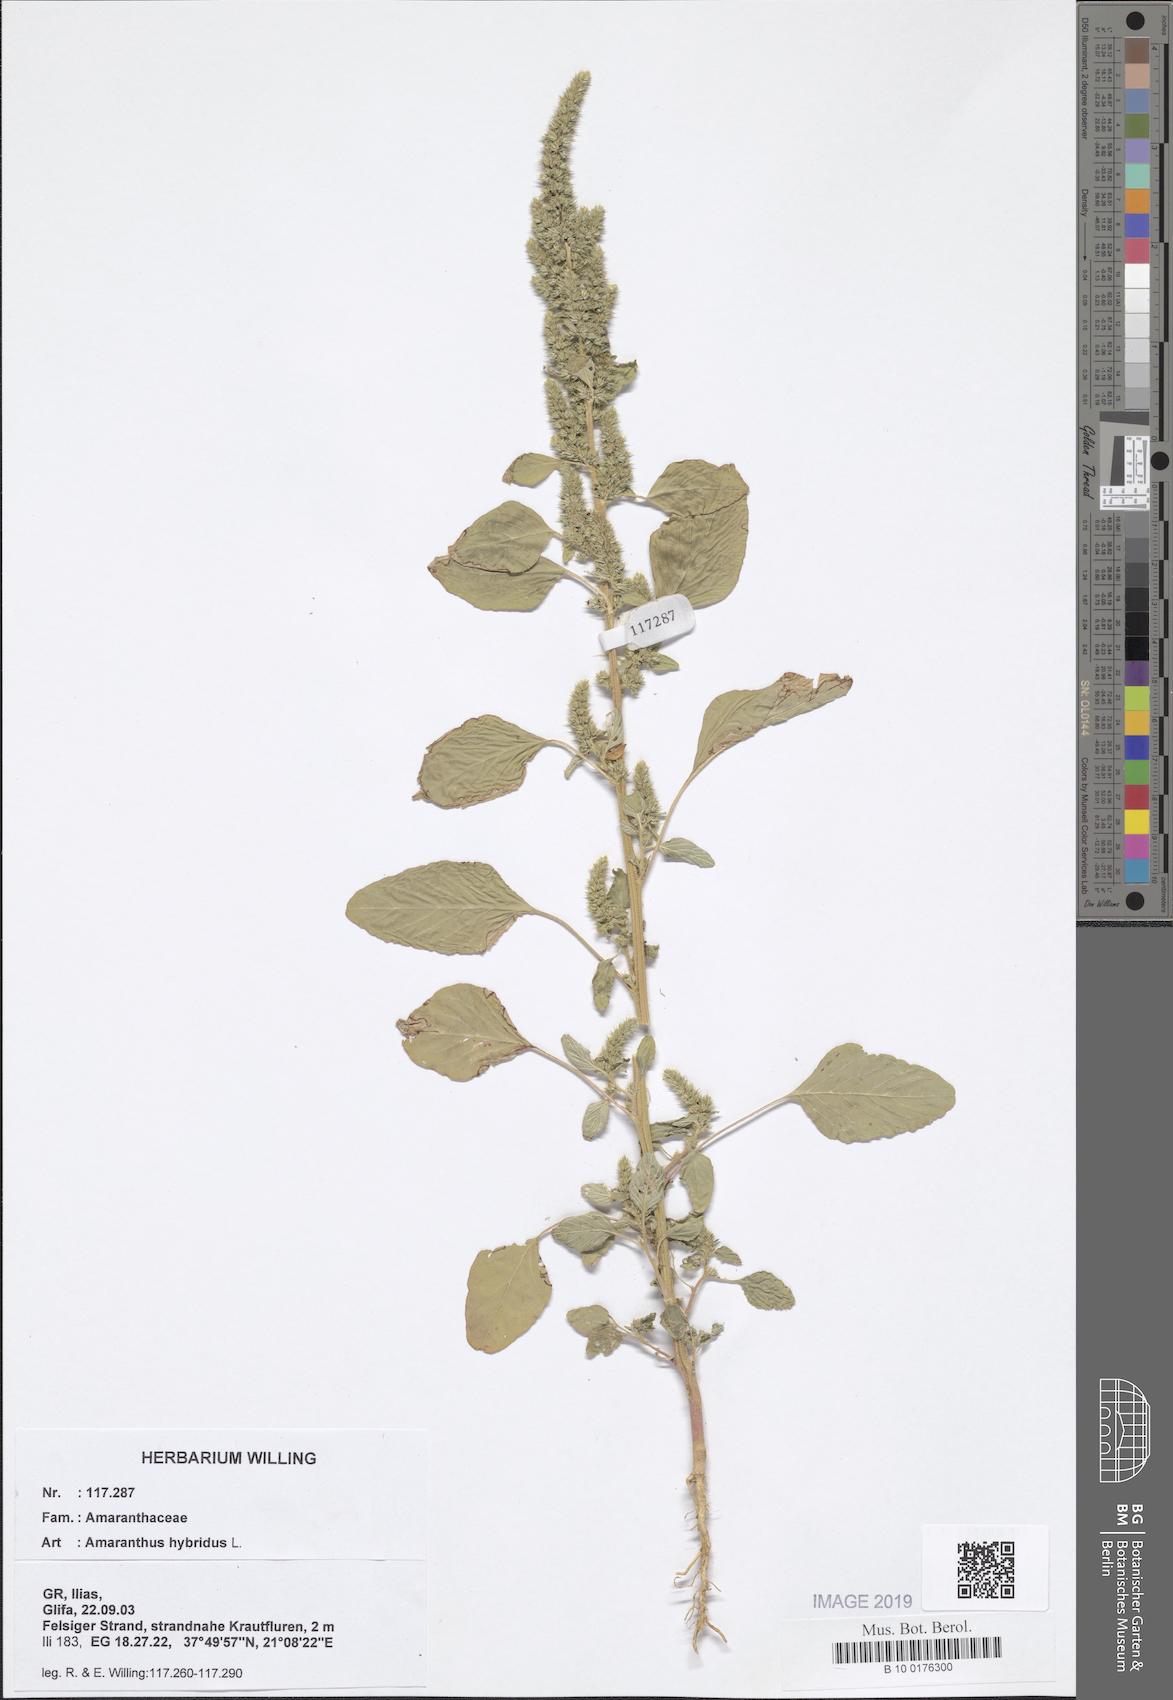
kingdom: Plantae
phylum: Tracheophyta
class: Magnoliopsida
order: Caryophyllales
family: Amaranthaceae
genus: Amaranthus
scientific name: Amaranthus hybridus
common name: Green amaranth
